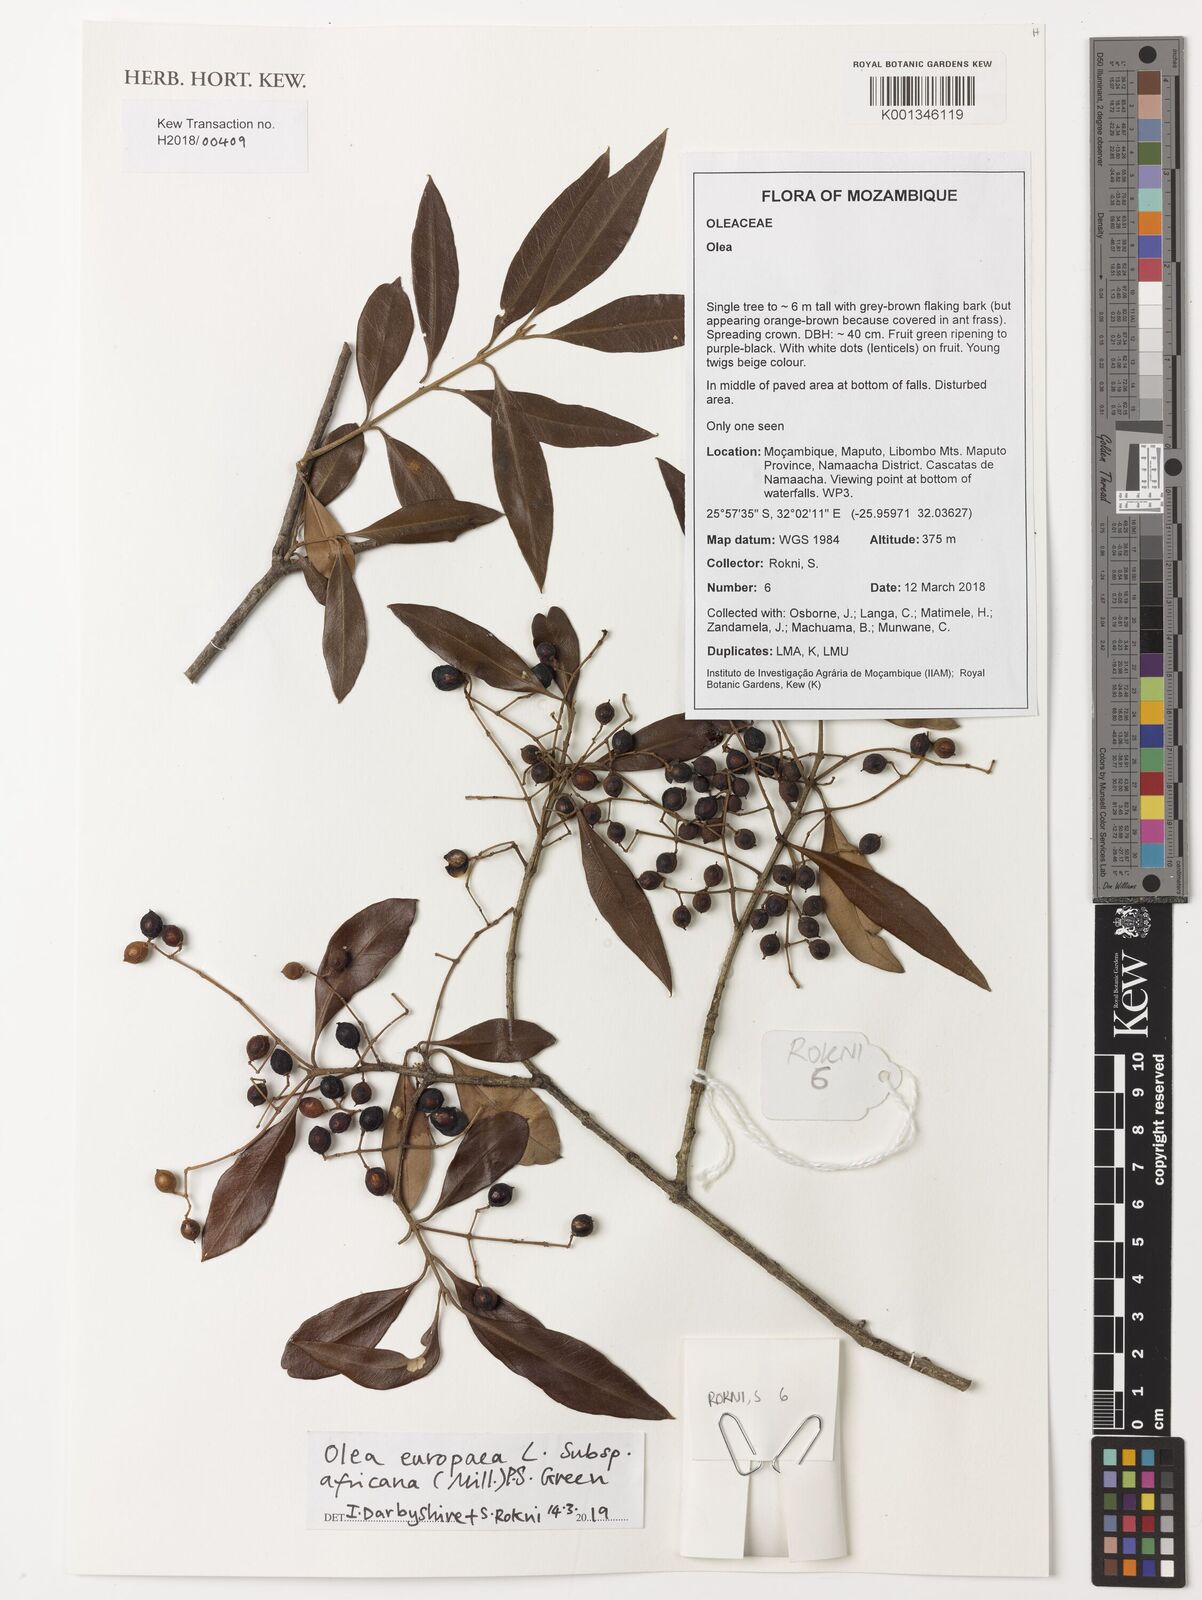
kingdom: Plantae
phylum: Tracheophyta
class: Magnoliopsida
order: Lamiales
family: Oleaceae
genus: Olea
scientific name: Olea europaea
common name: Olive
